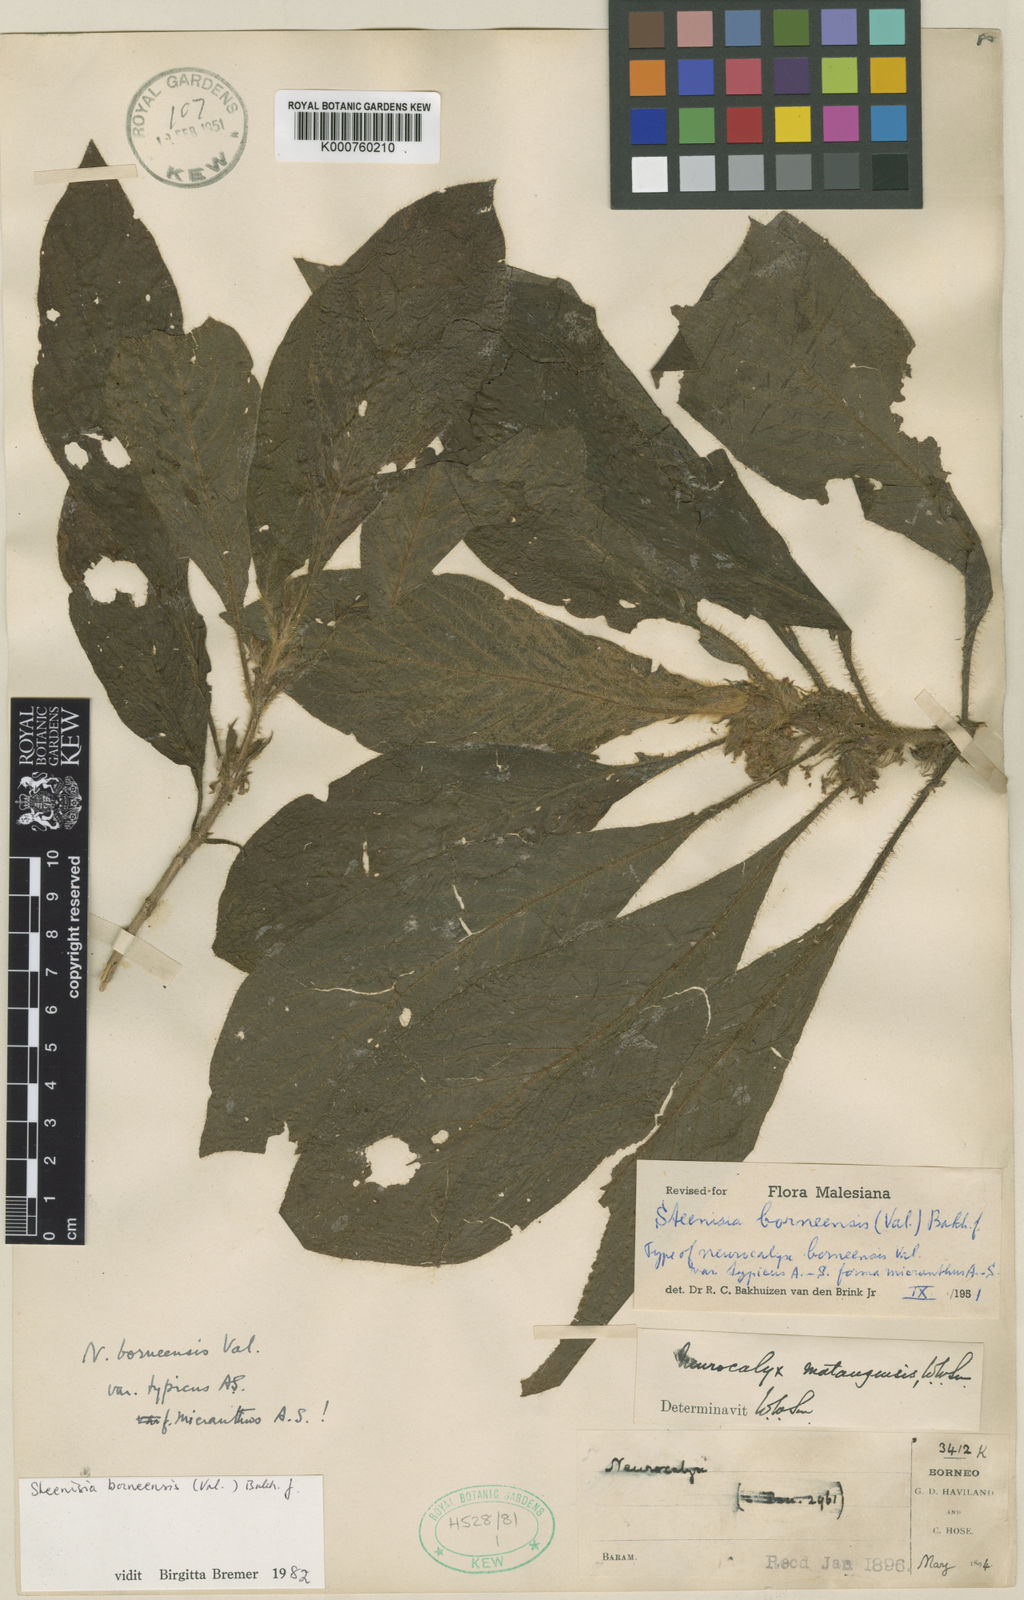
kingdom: Plantae
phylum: Tracheophyta
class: Magnoliopsida
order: Gentianales
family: Rubiaceae
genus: Steenisia
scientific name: Steenisia borneensis
